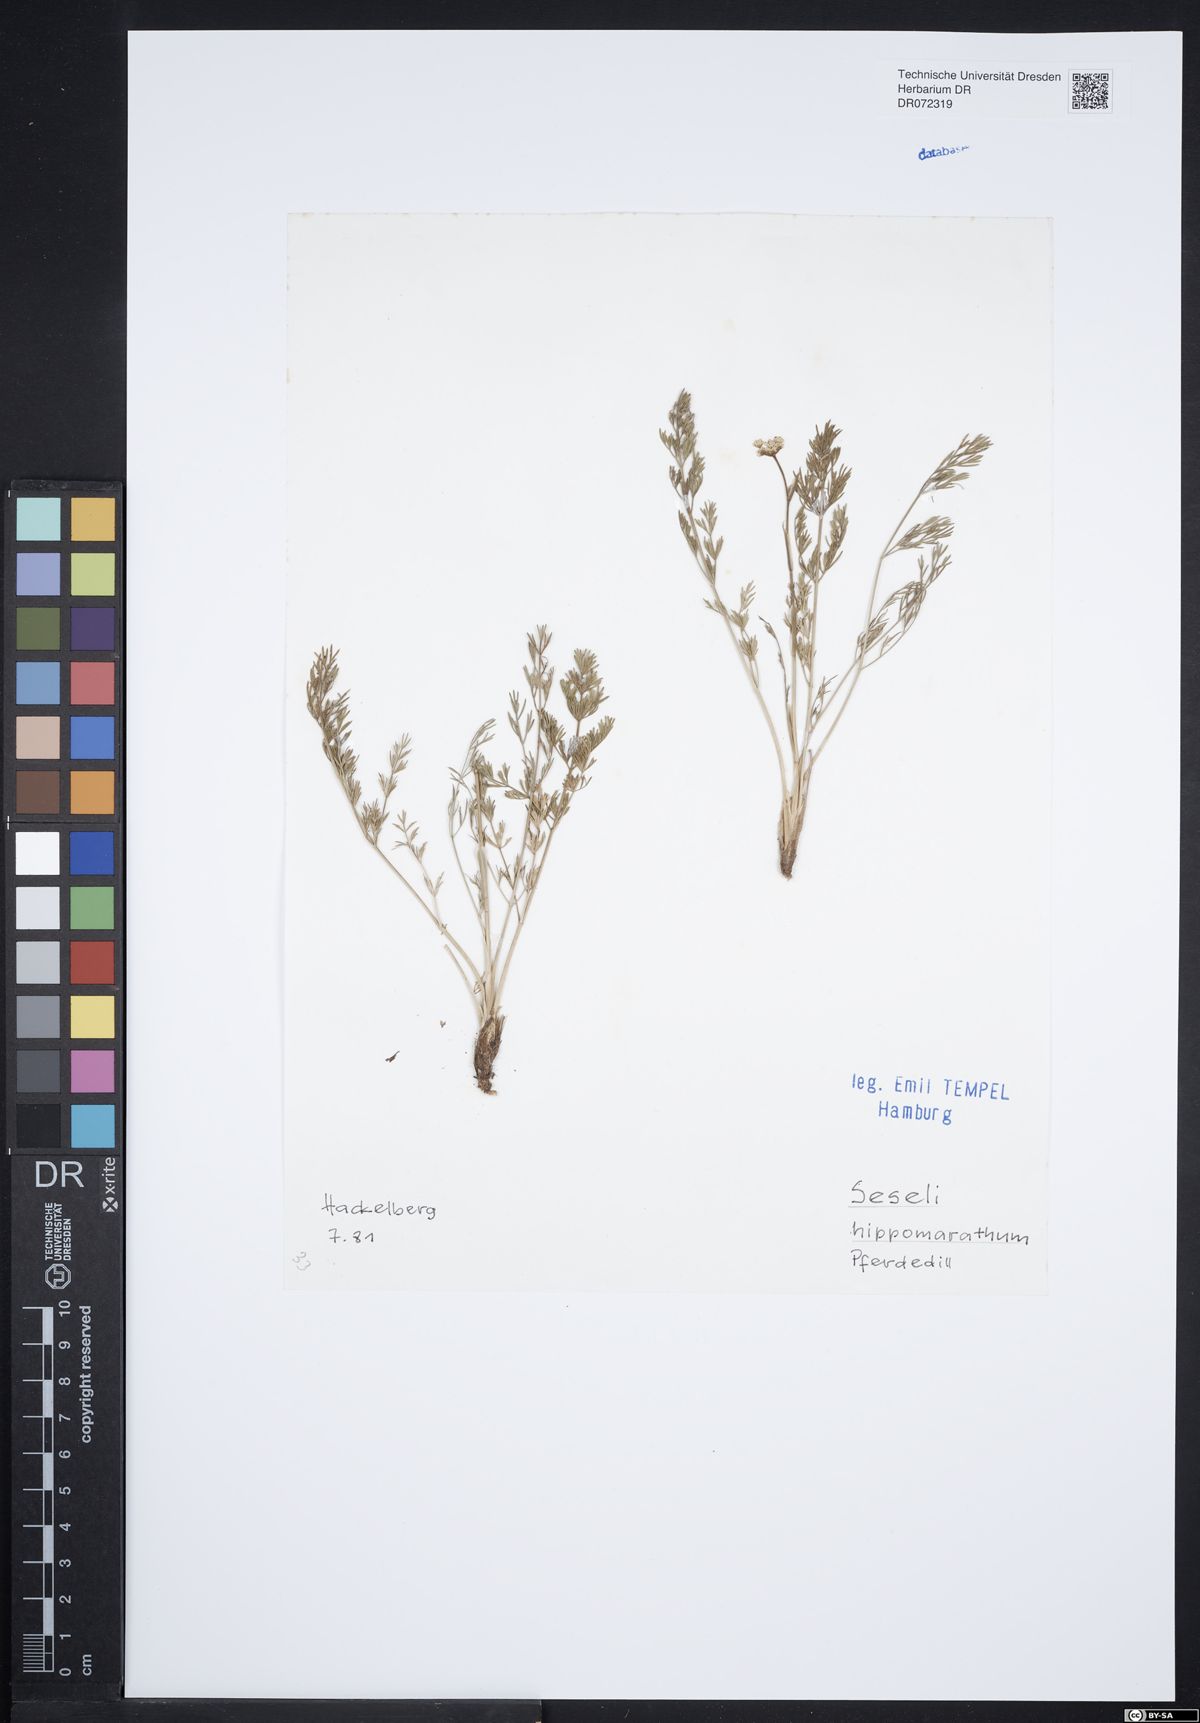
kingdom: Plantae
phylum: Tracheophyta
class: Magnoliopsida
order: Apiales
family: Apiaceae
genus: Hippomarathrum
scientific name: Hippomarathrum vulgare
